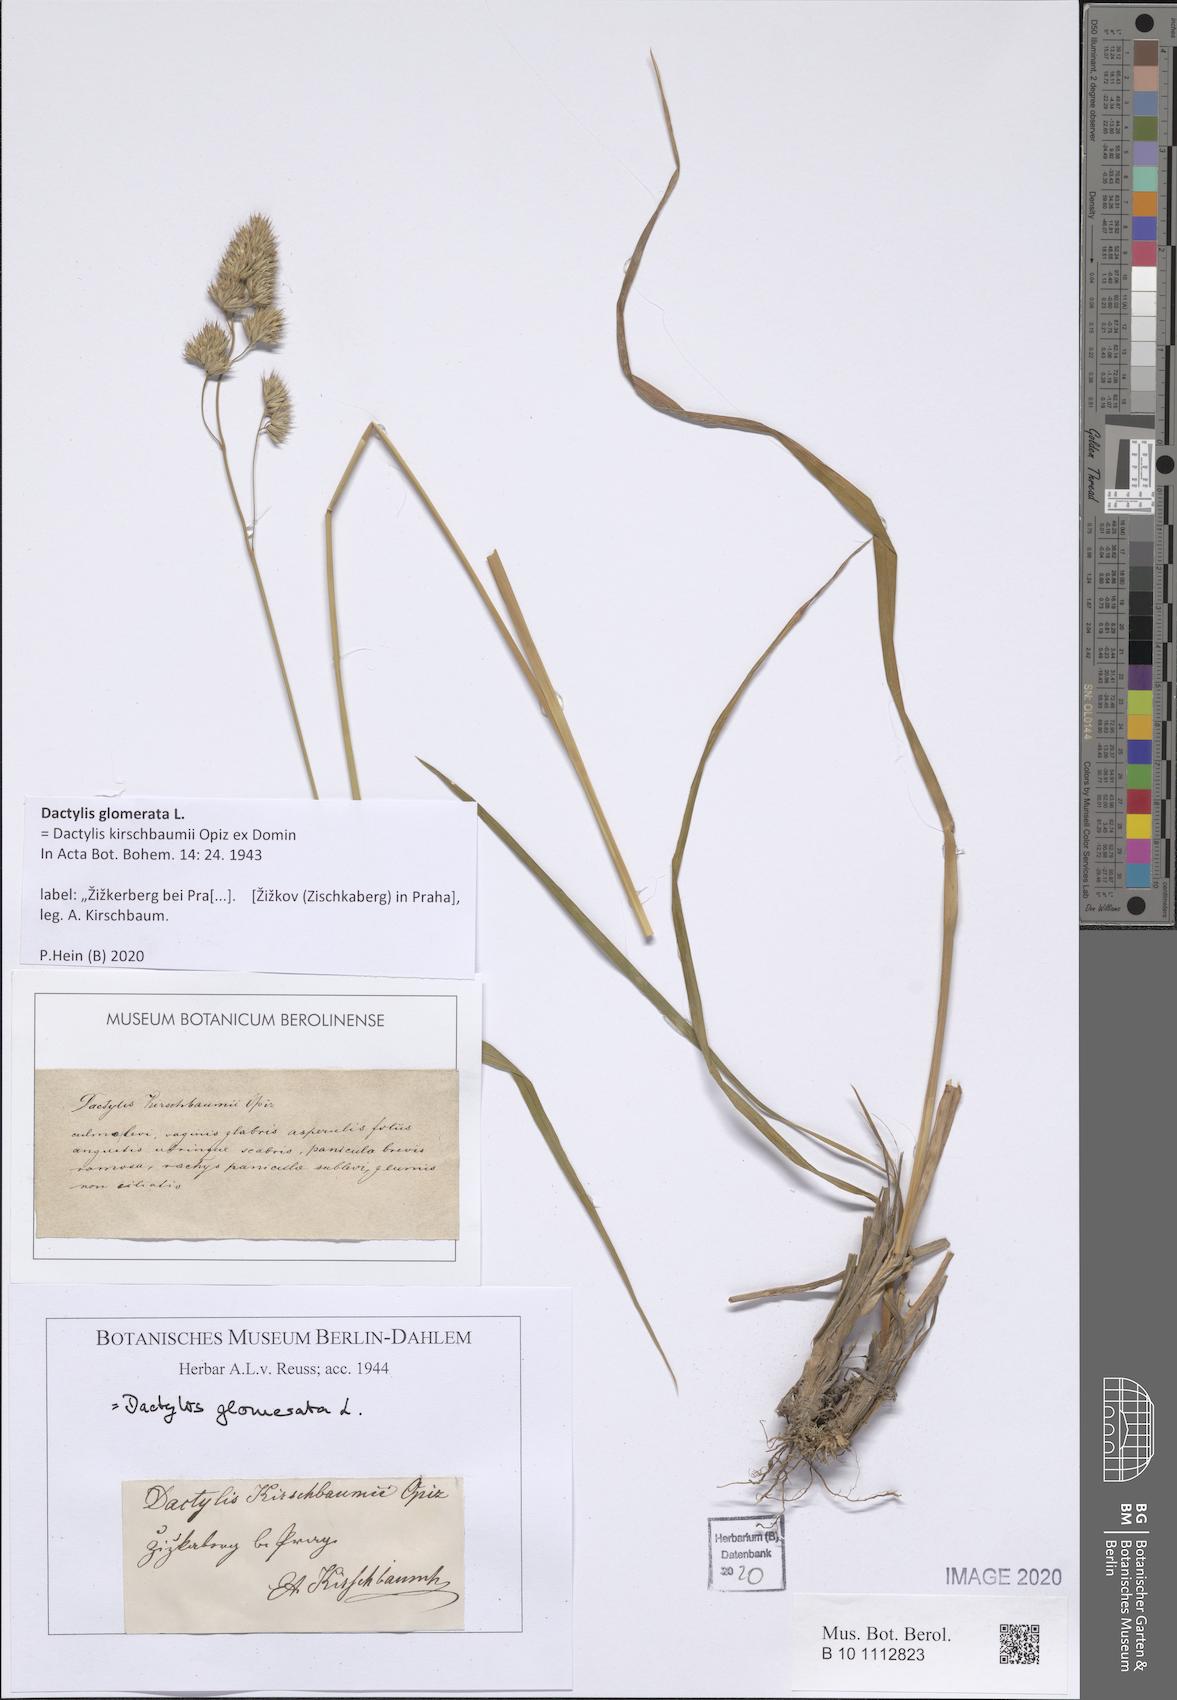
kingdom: Plantae
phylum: Tracheophyta
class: Liliopsida
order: Poales
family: Poaceae
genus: Dactylis
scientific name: Dactylis glomerata
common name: Orchardgrass
